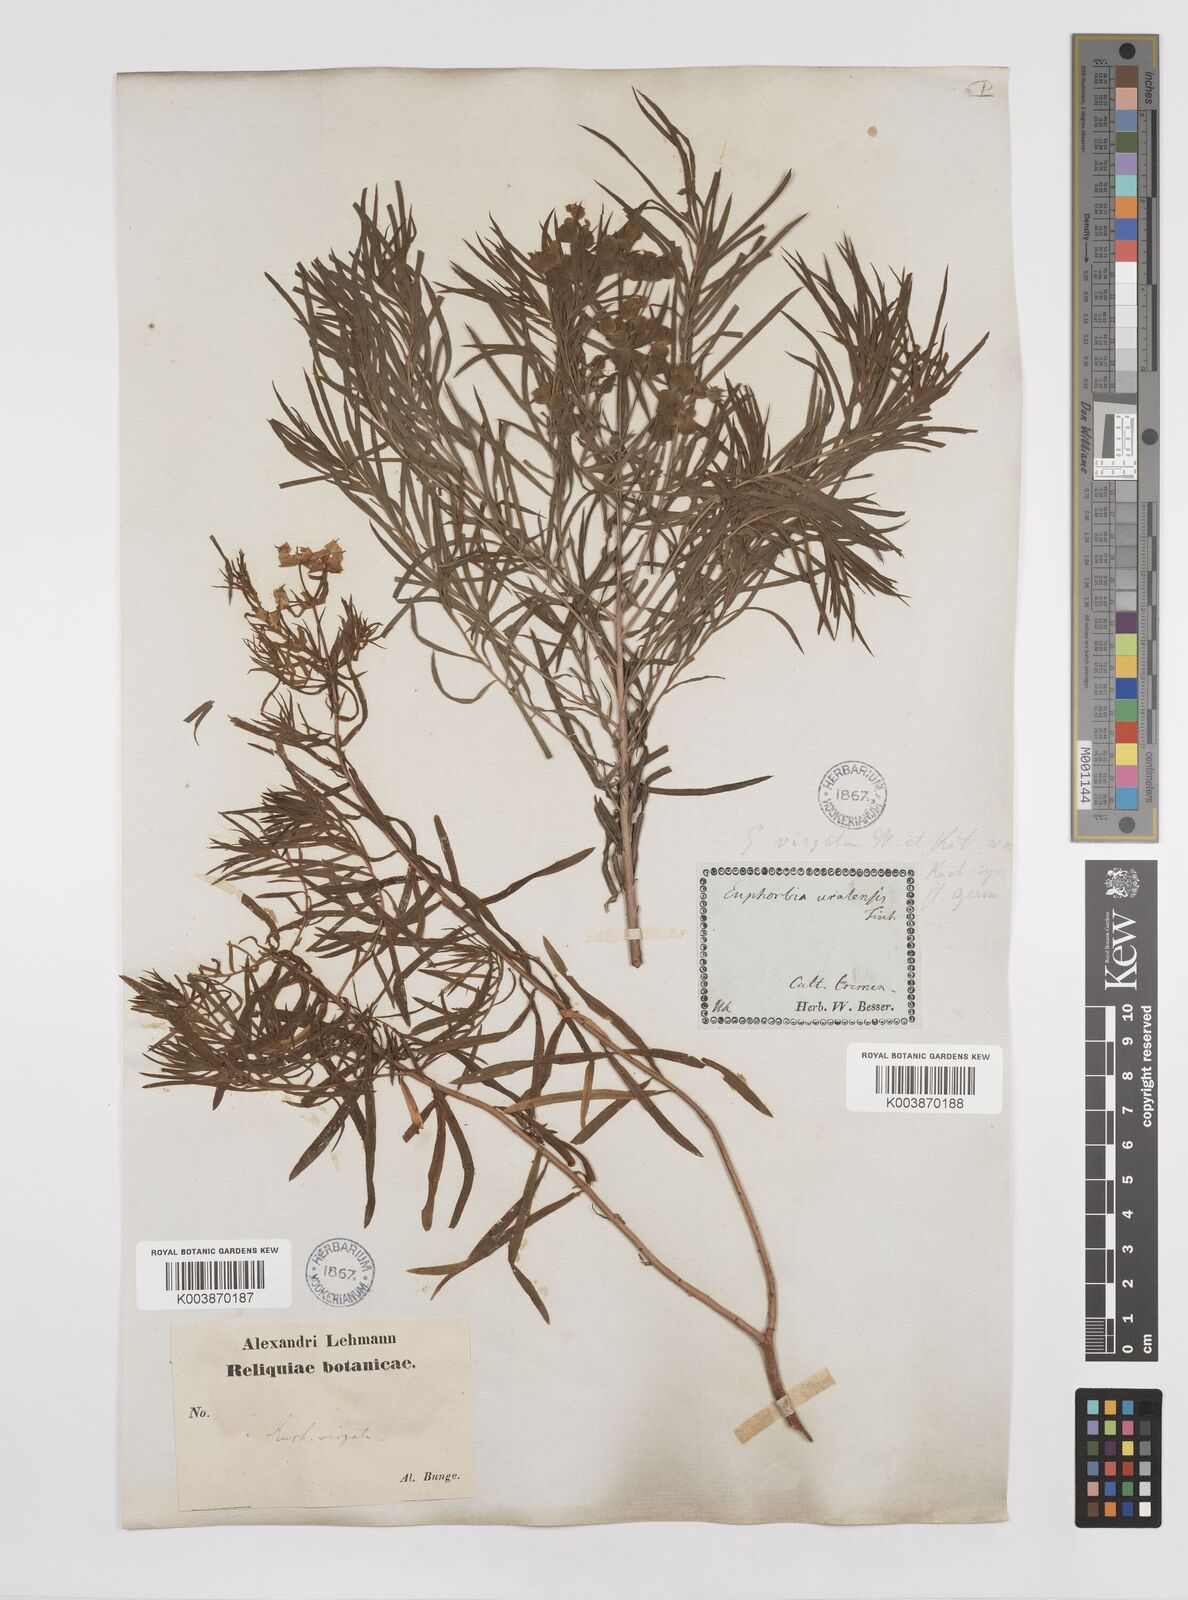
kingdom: Plantae
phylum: Tracheophyta
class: Magnoliopsida
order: Malpighiales
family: Euphorbiaceae
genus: Euphorbia
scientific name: Euphorbia
